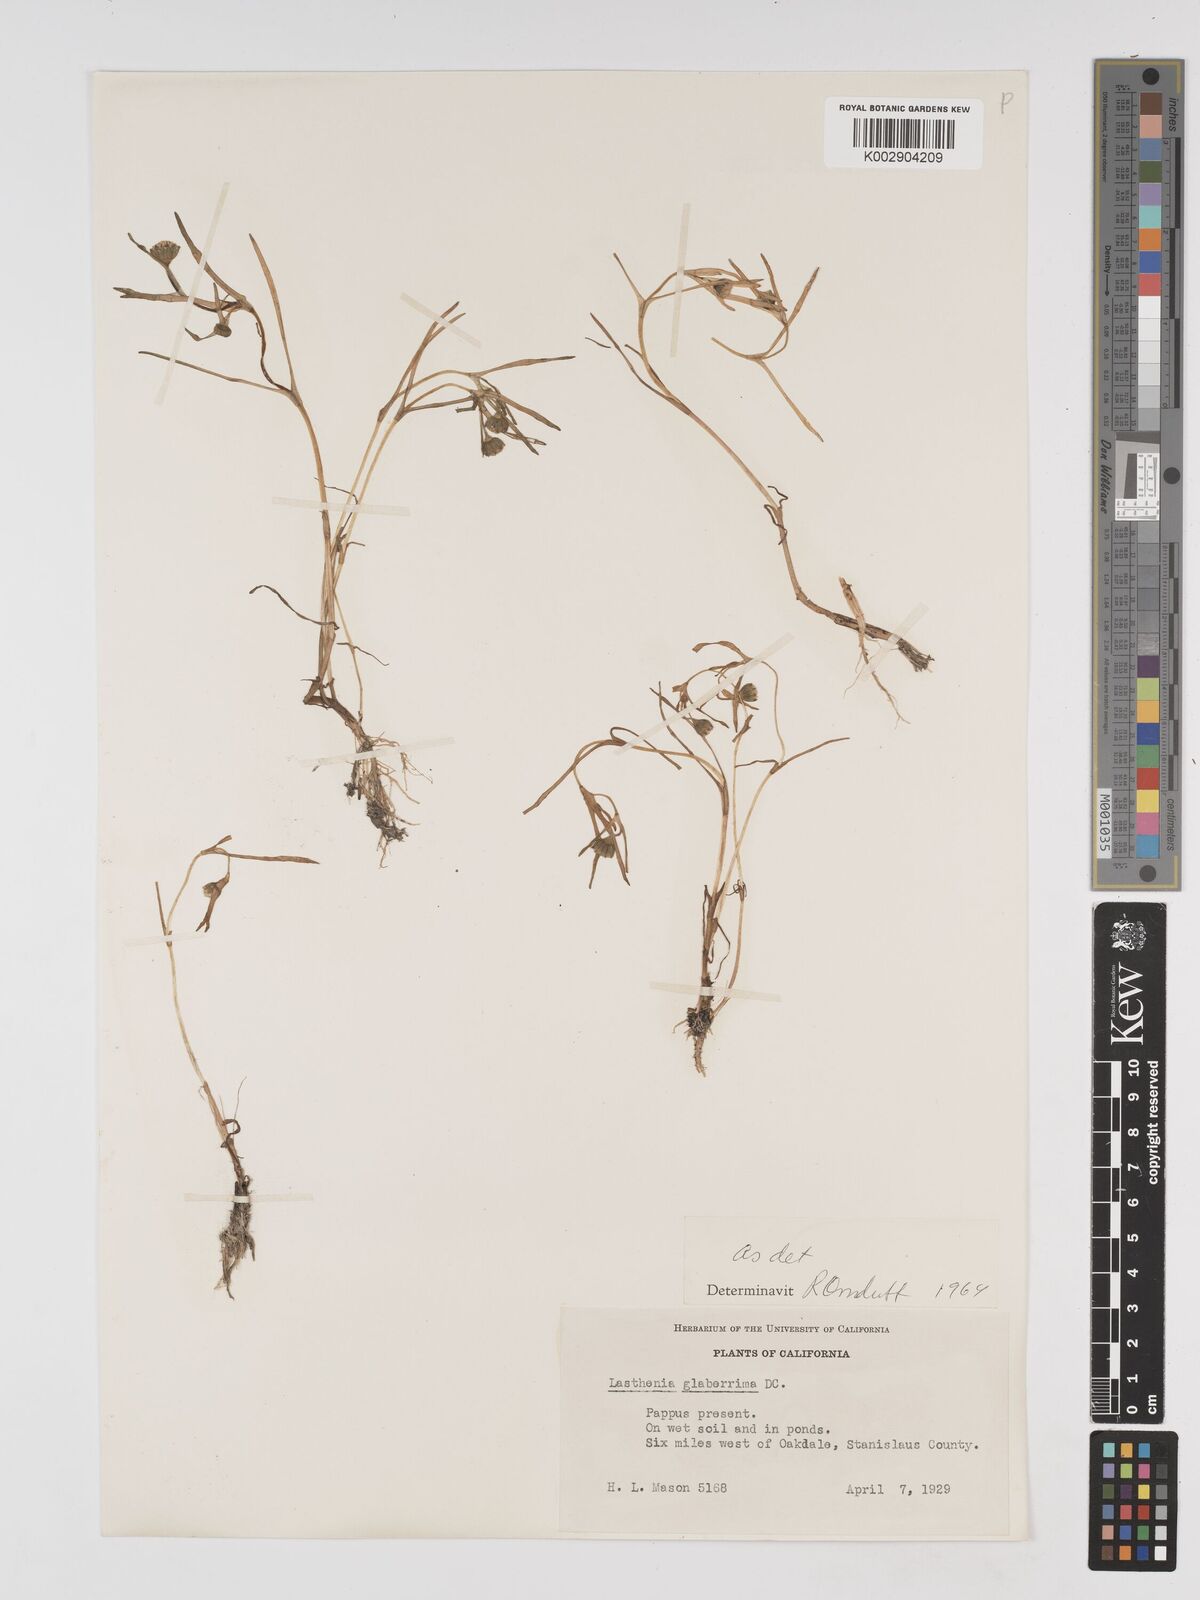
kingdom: Plantae
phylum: Tracheophyta
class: Magnoliopsida
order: Asterales
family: Asteraceae
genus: Lasthenia
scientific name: Lasthenia glaberrima
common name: Smooth goldfields
